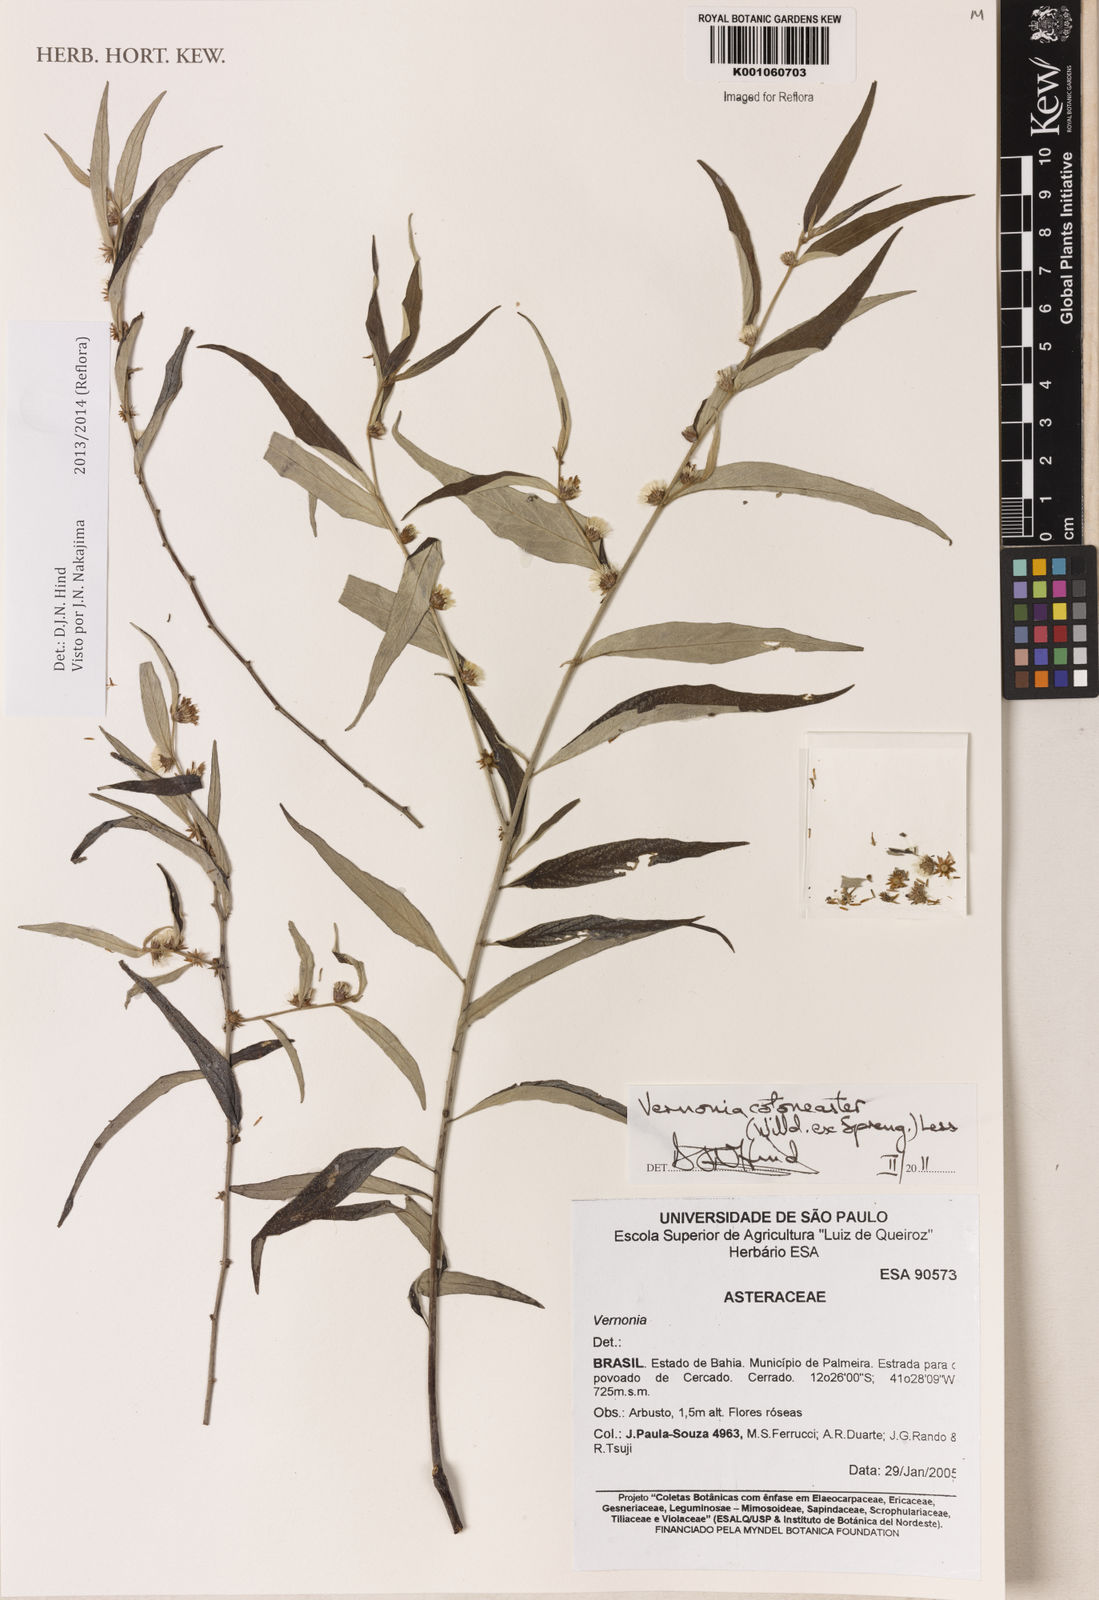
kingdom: Plantae
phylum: Tracheophyta
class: Magnoliopsida
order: Asterales
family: Asteraceae
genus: Lepidaploa
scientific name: Lepidaploa cotoneaster
